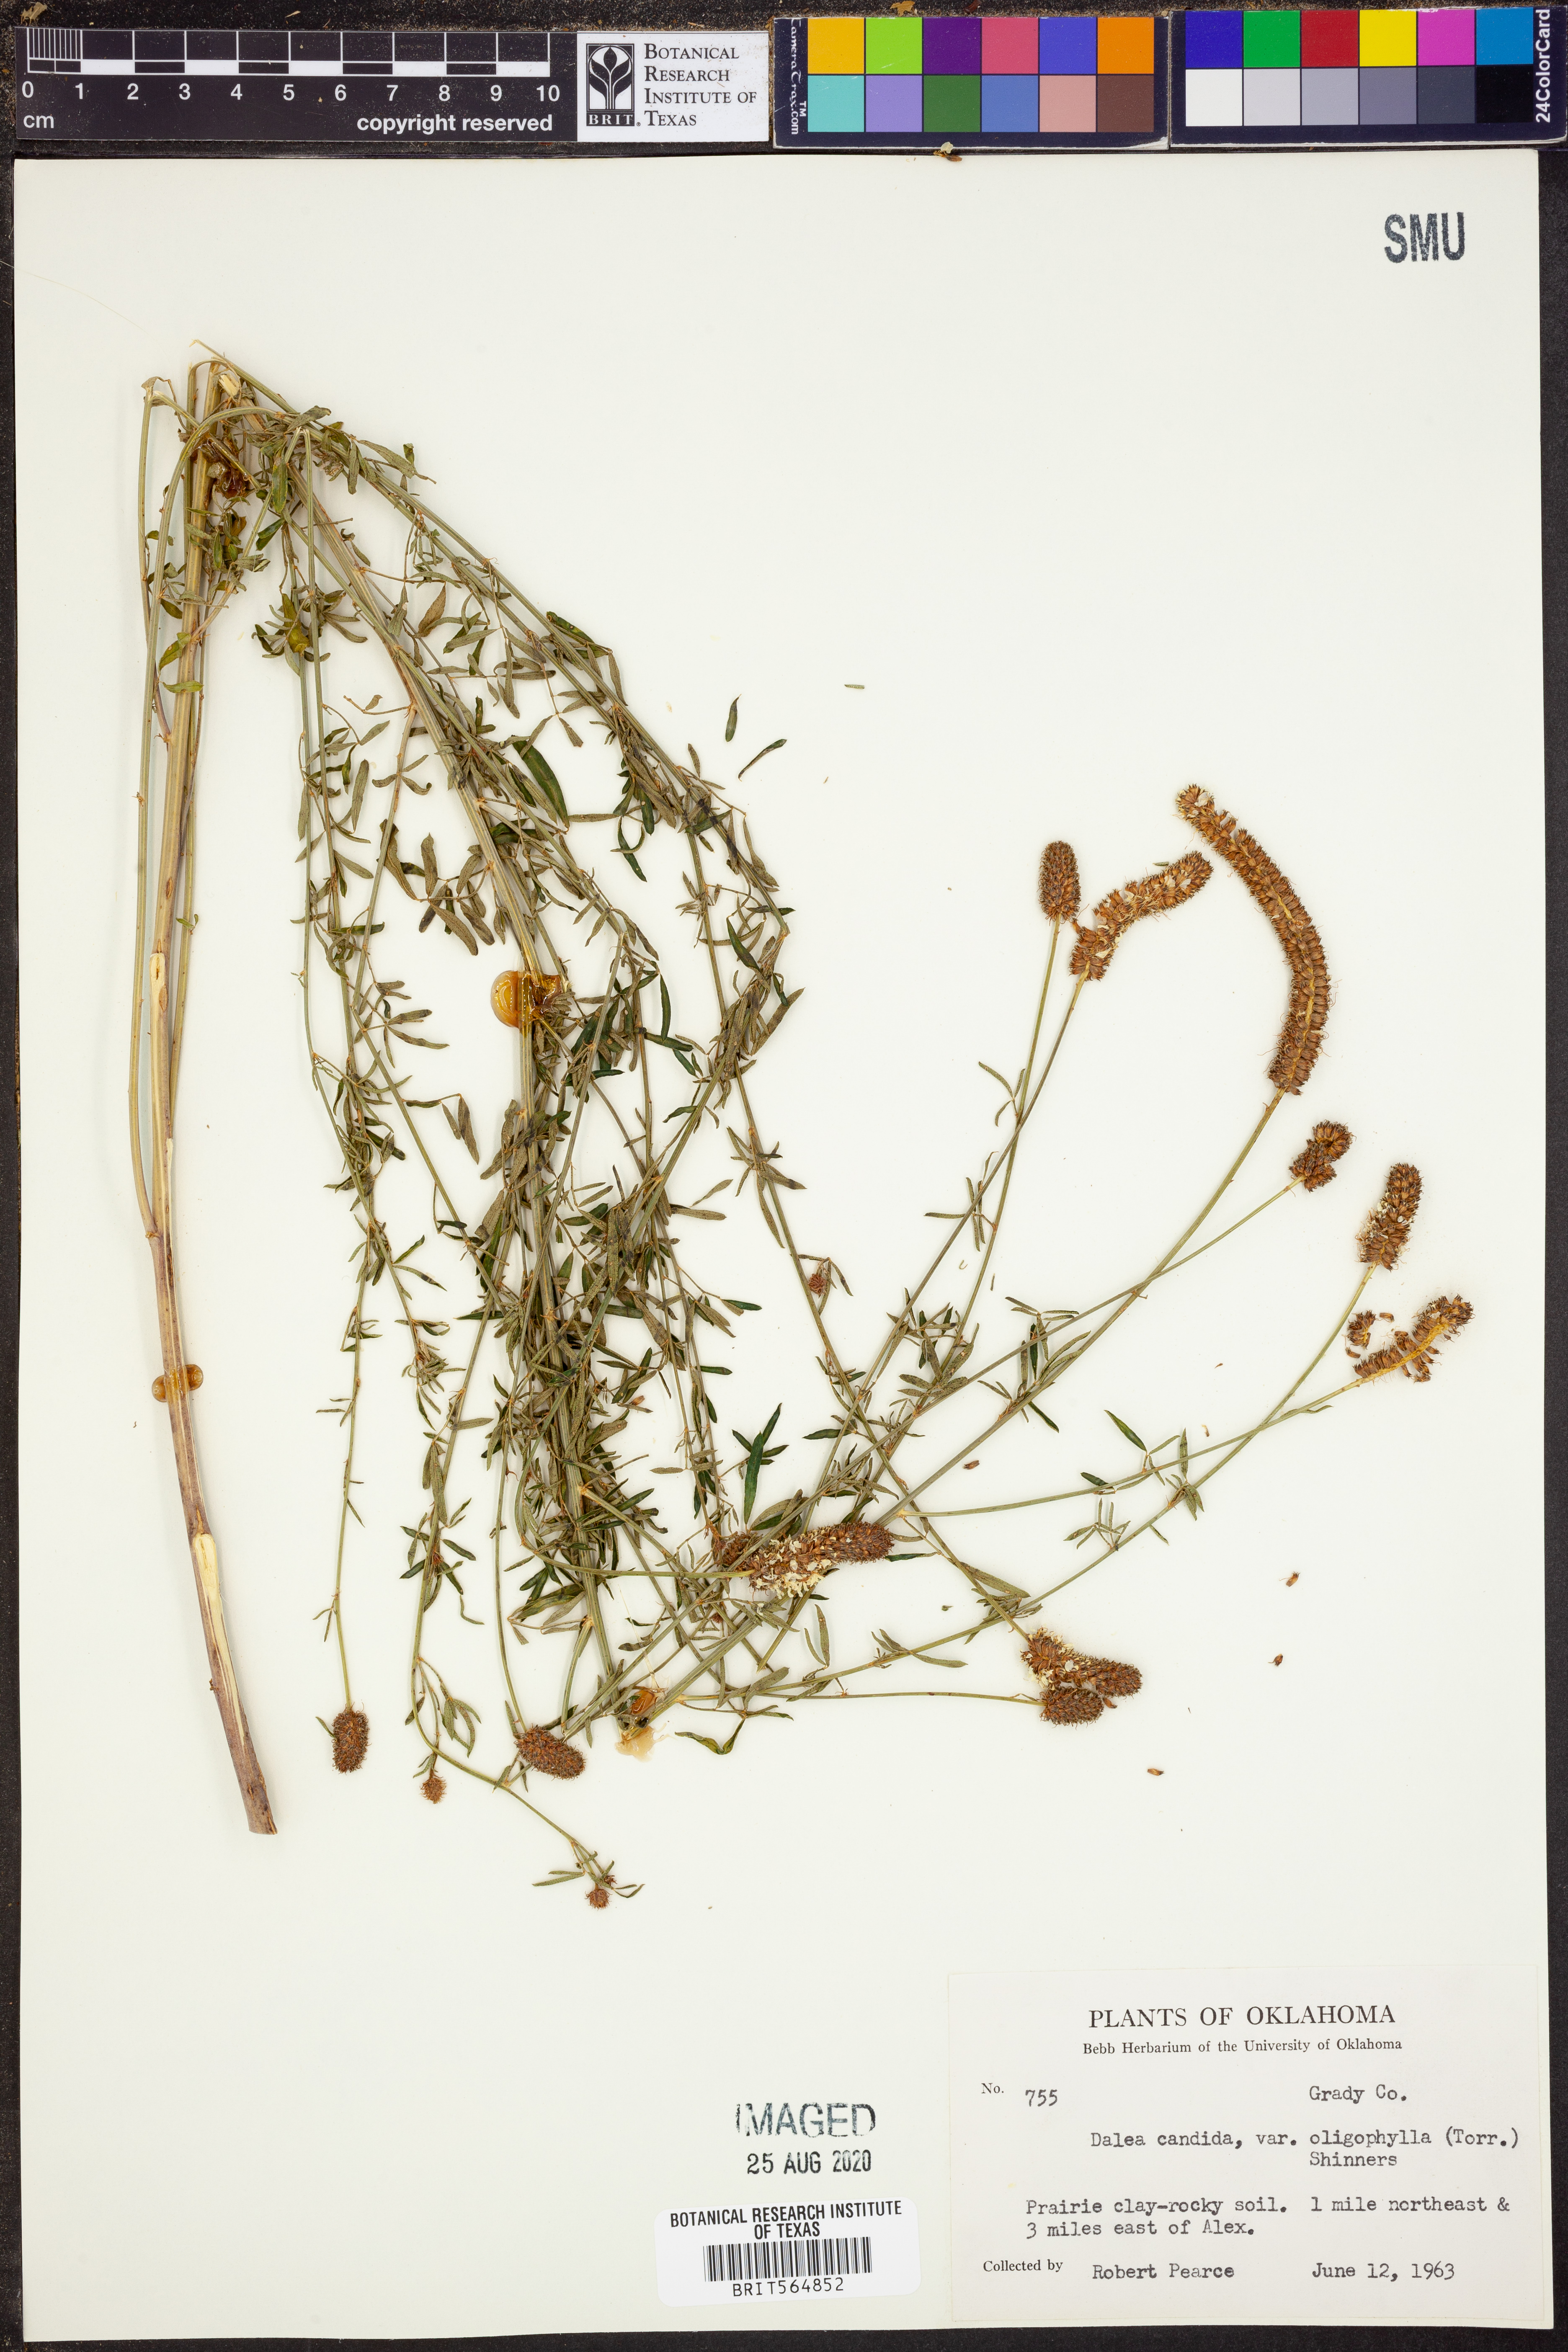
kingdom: Plantae
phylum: Tracheophyta
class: Magnoliopsida
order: Fabales
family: Fabaceae
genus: Dalea
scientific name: Dalea candida
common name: White prairie-clover
